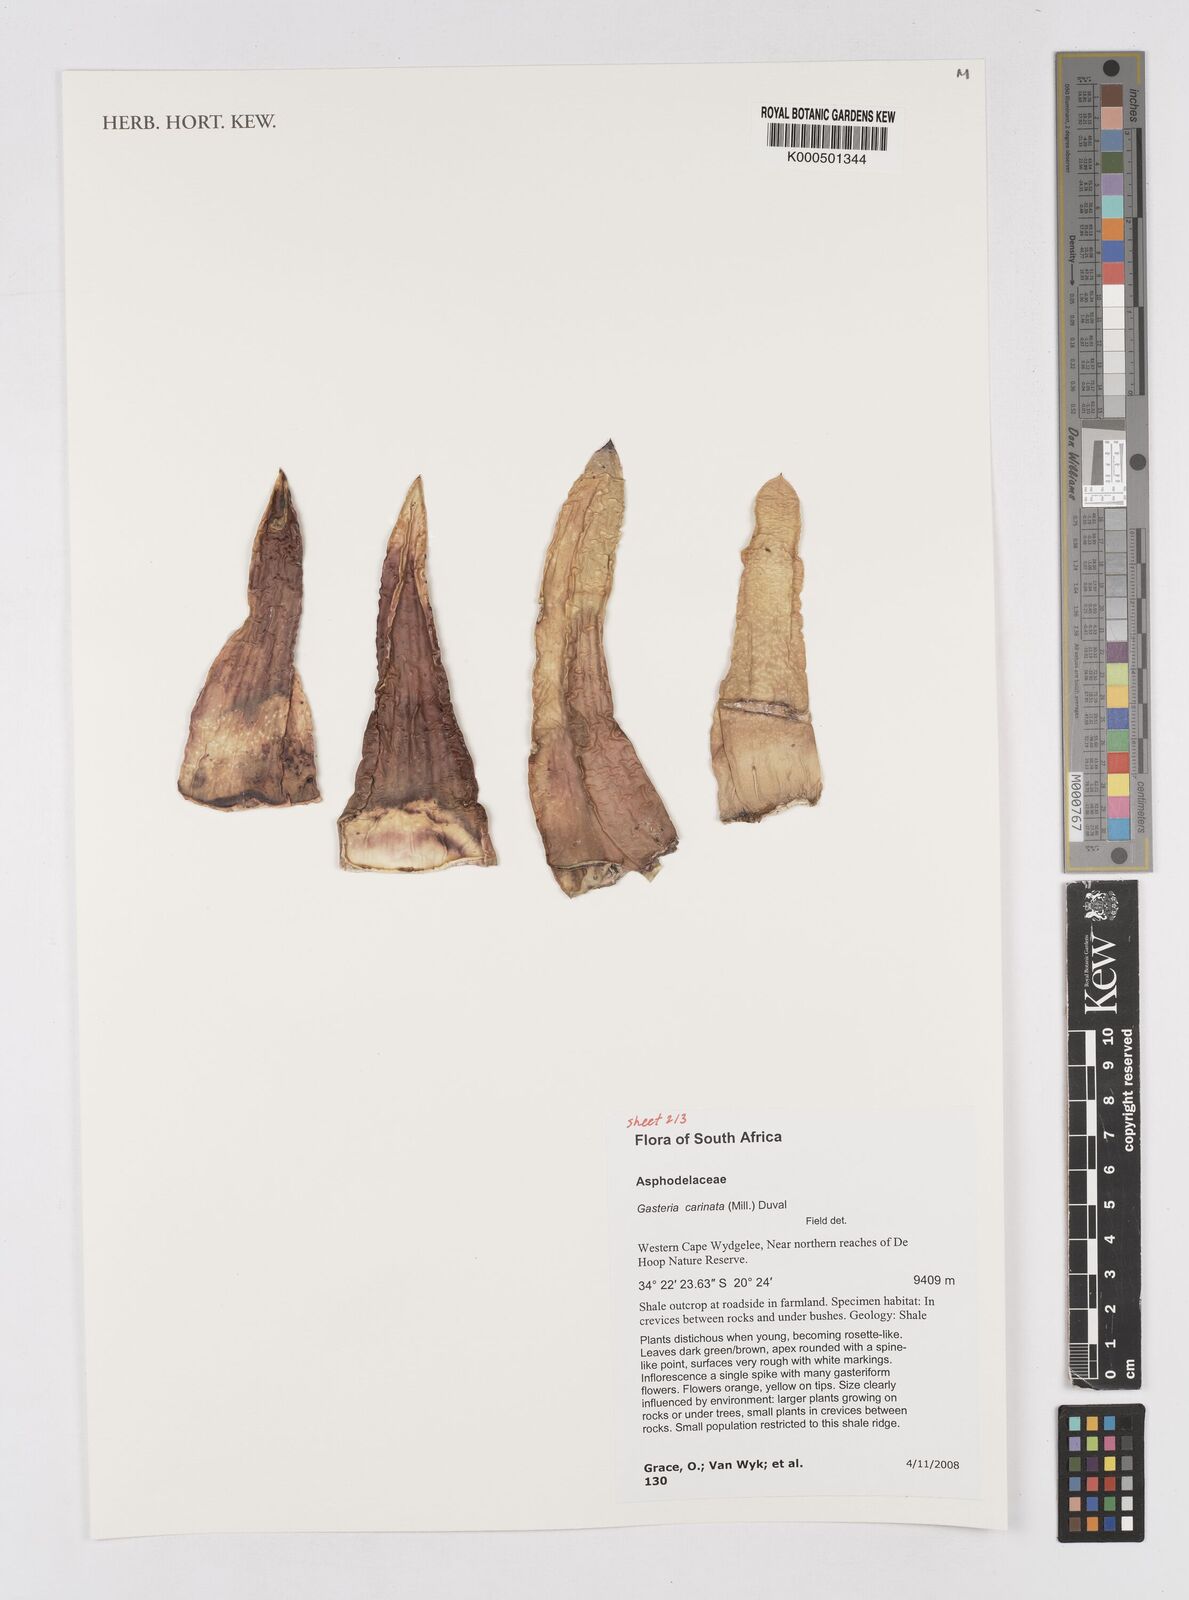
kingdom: Plantae
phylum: Tracheophyta
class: Liliopsida
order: Asparagales
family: Asphodelaceae
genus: Gasteria
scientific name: Gasteria carinata
